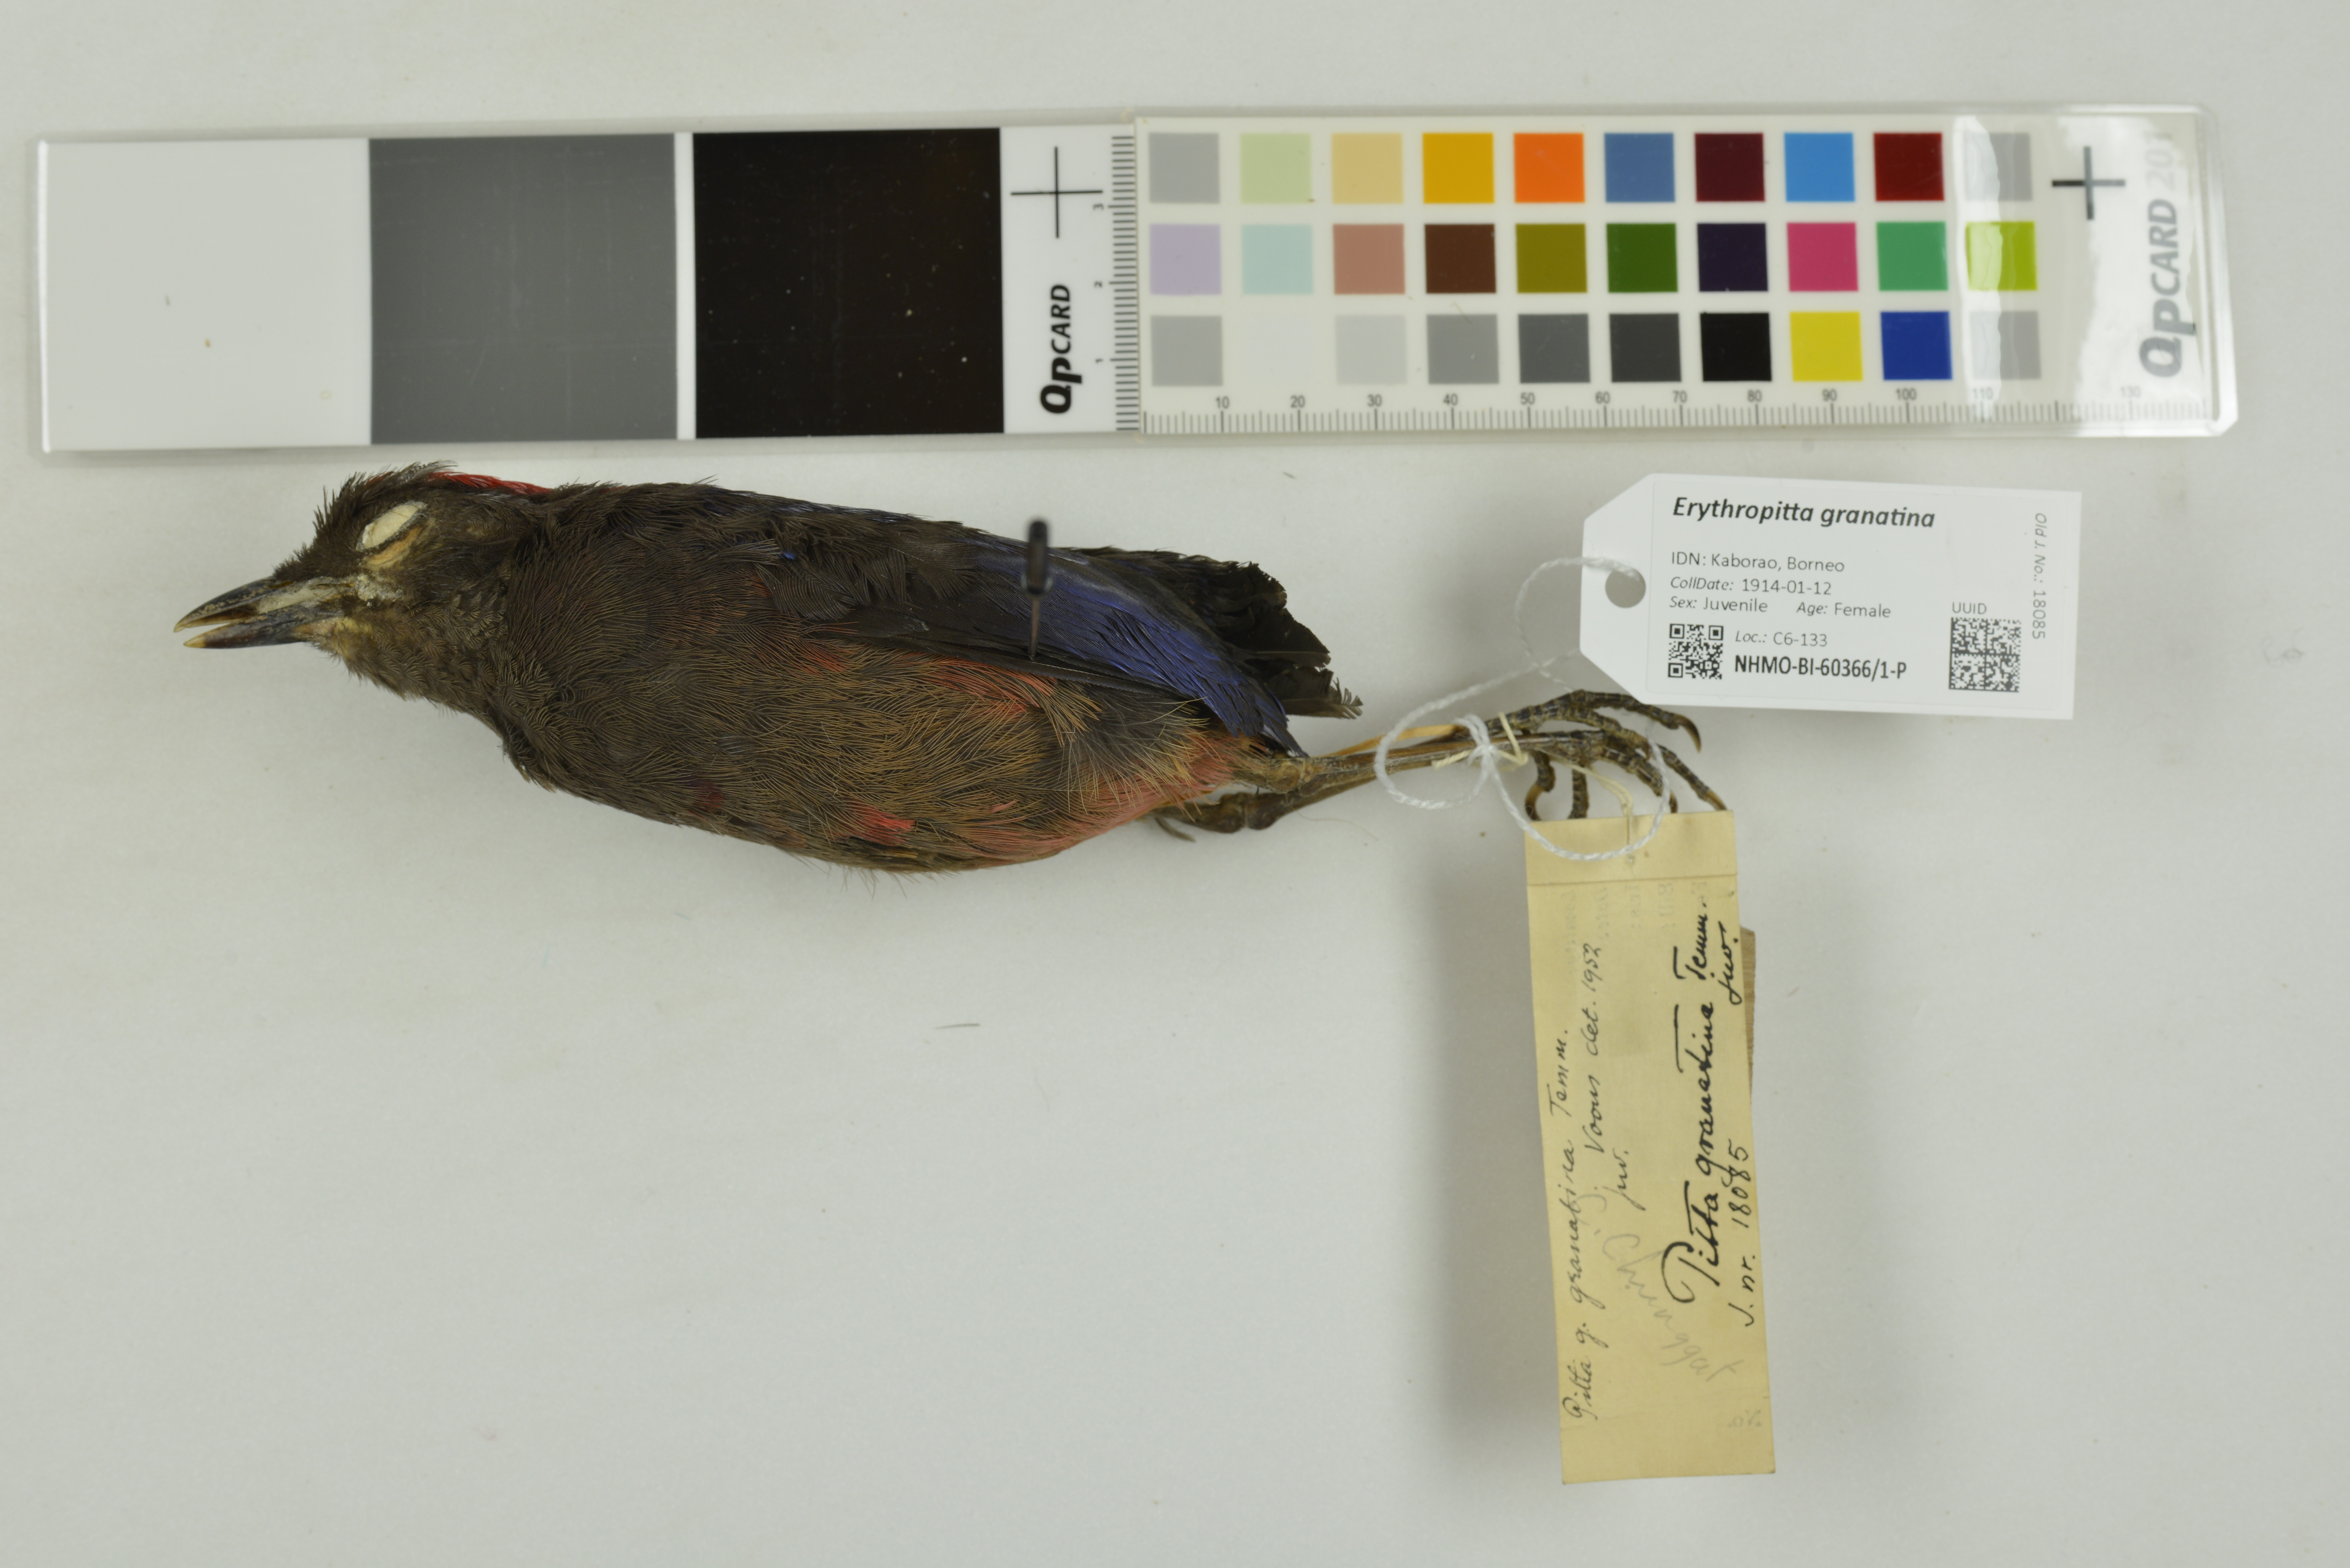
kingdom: Animalia
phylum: Chordata
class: Aves
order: Passeriformes
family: Pittidae
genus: Pitta
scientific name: Pitta granatina
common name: Garnet pitta
